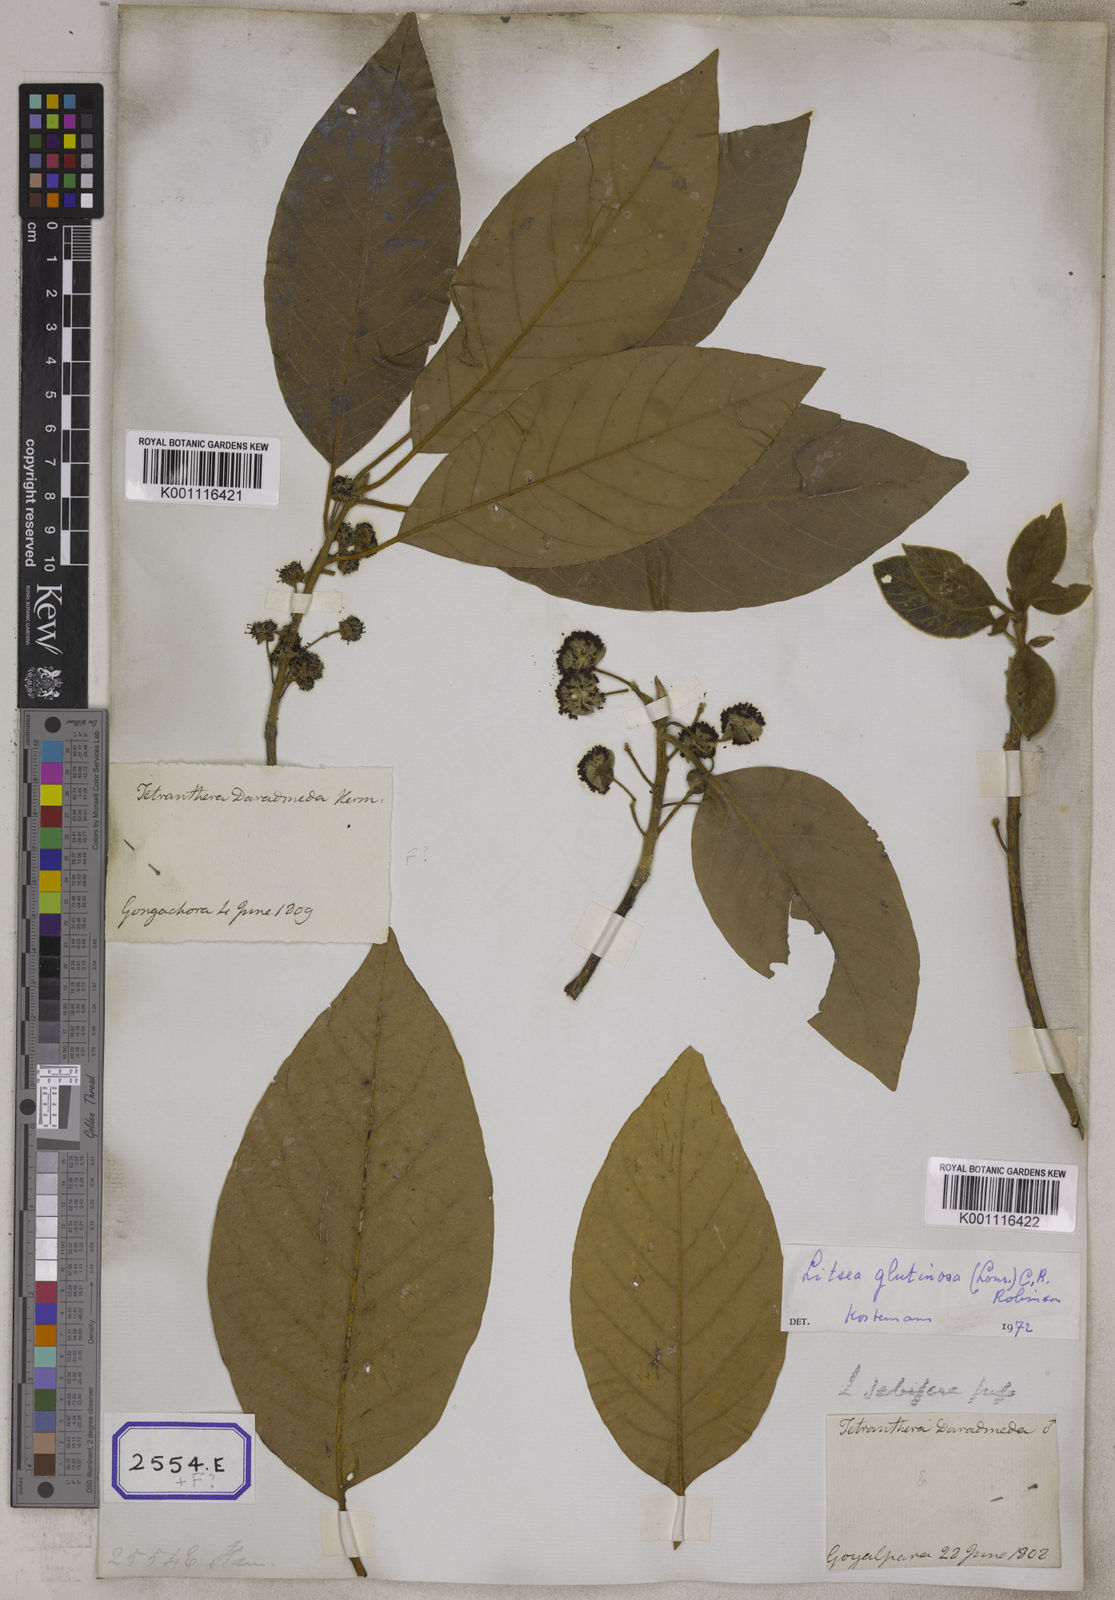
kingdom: Plantae
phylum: Tracheophyta
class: Magnoliopsida
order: Laurales
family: Lauraceae
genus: Litsea
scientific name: Litsea glutinosa
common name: Indian-laurel
